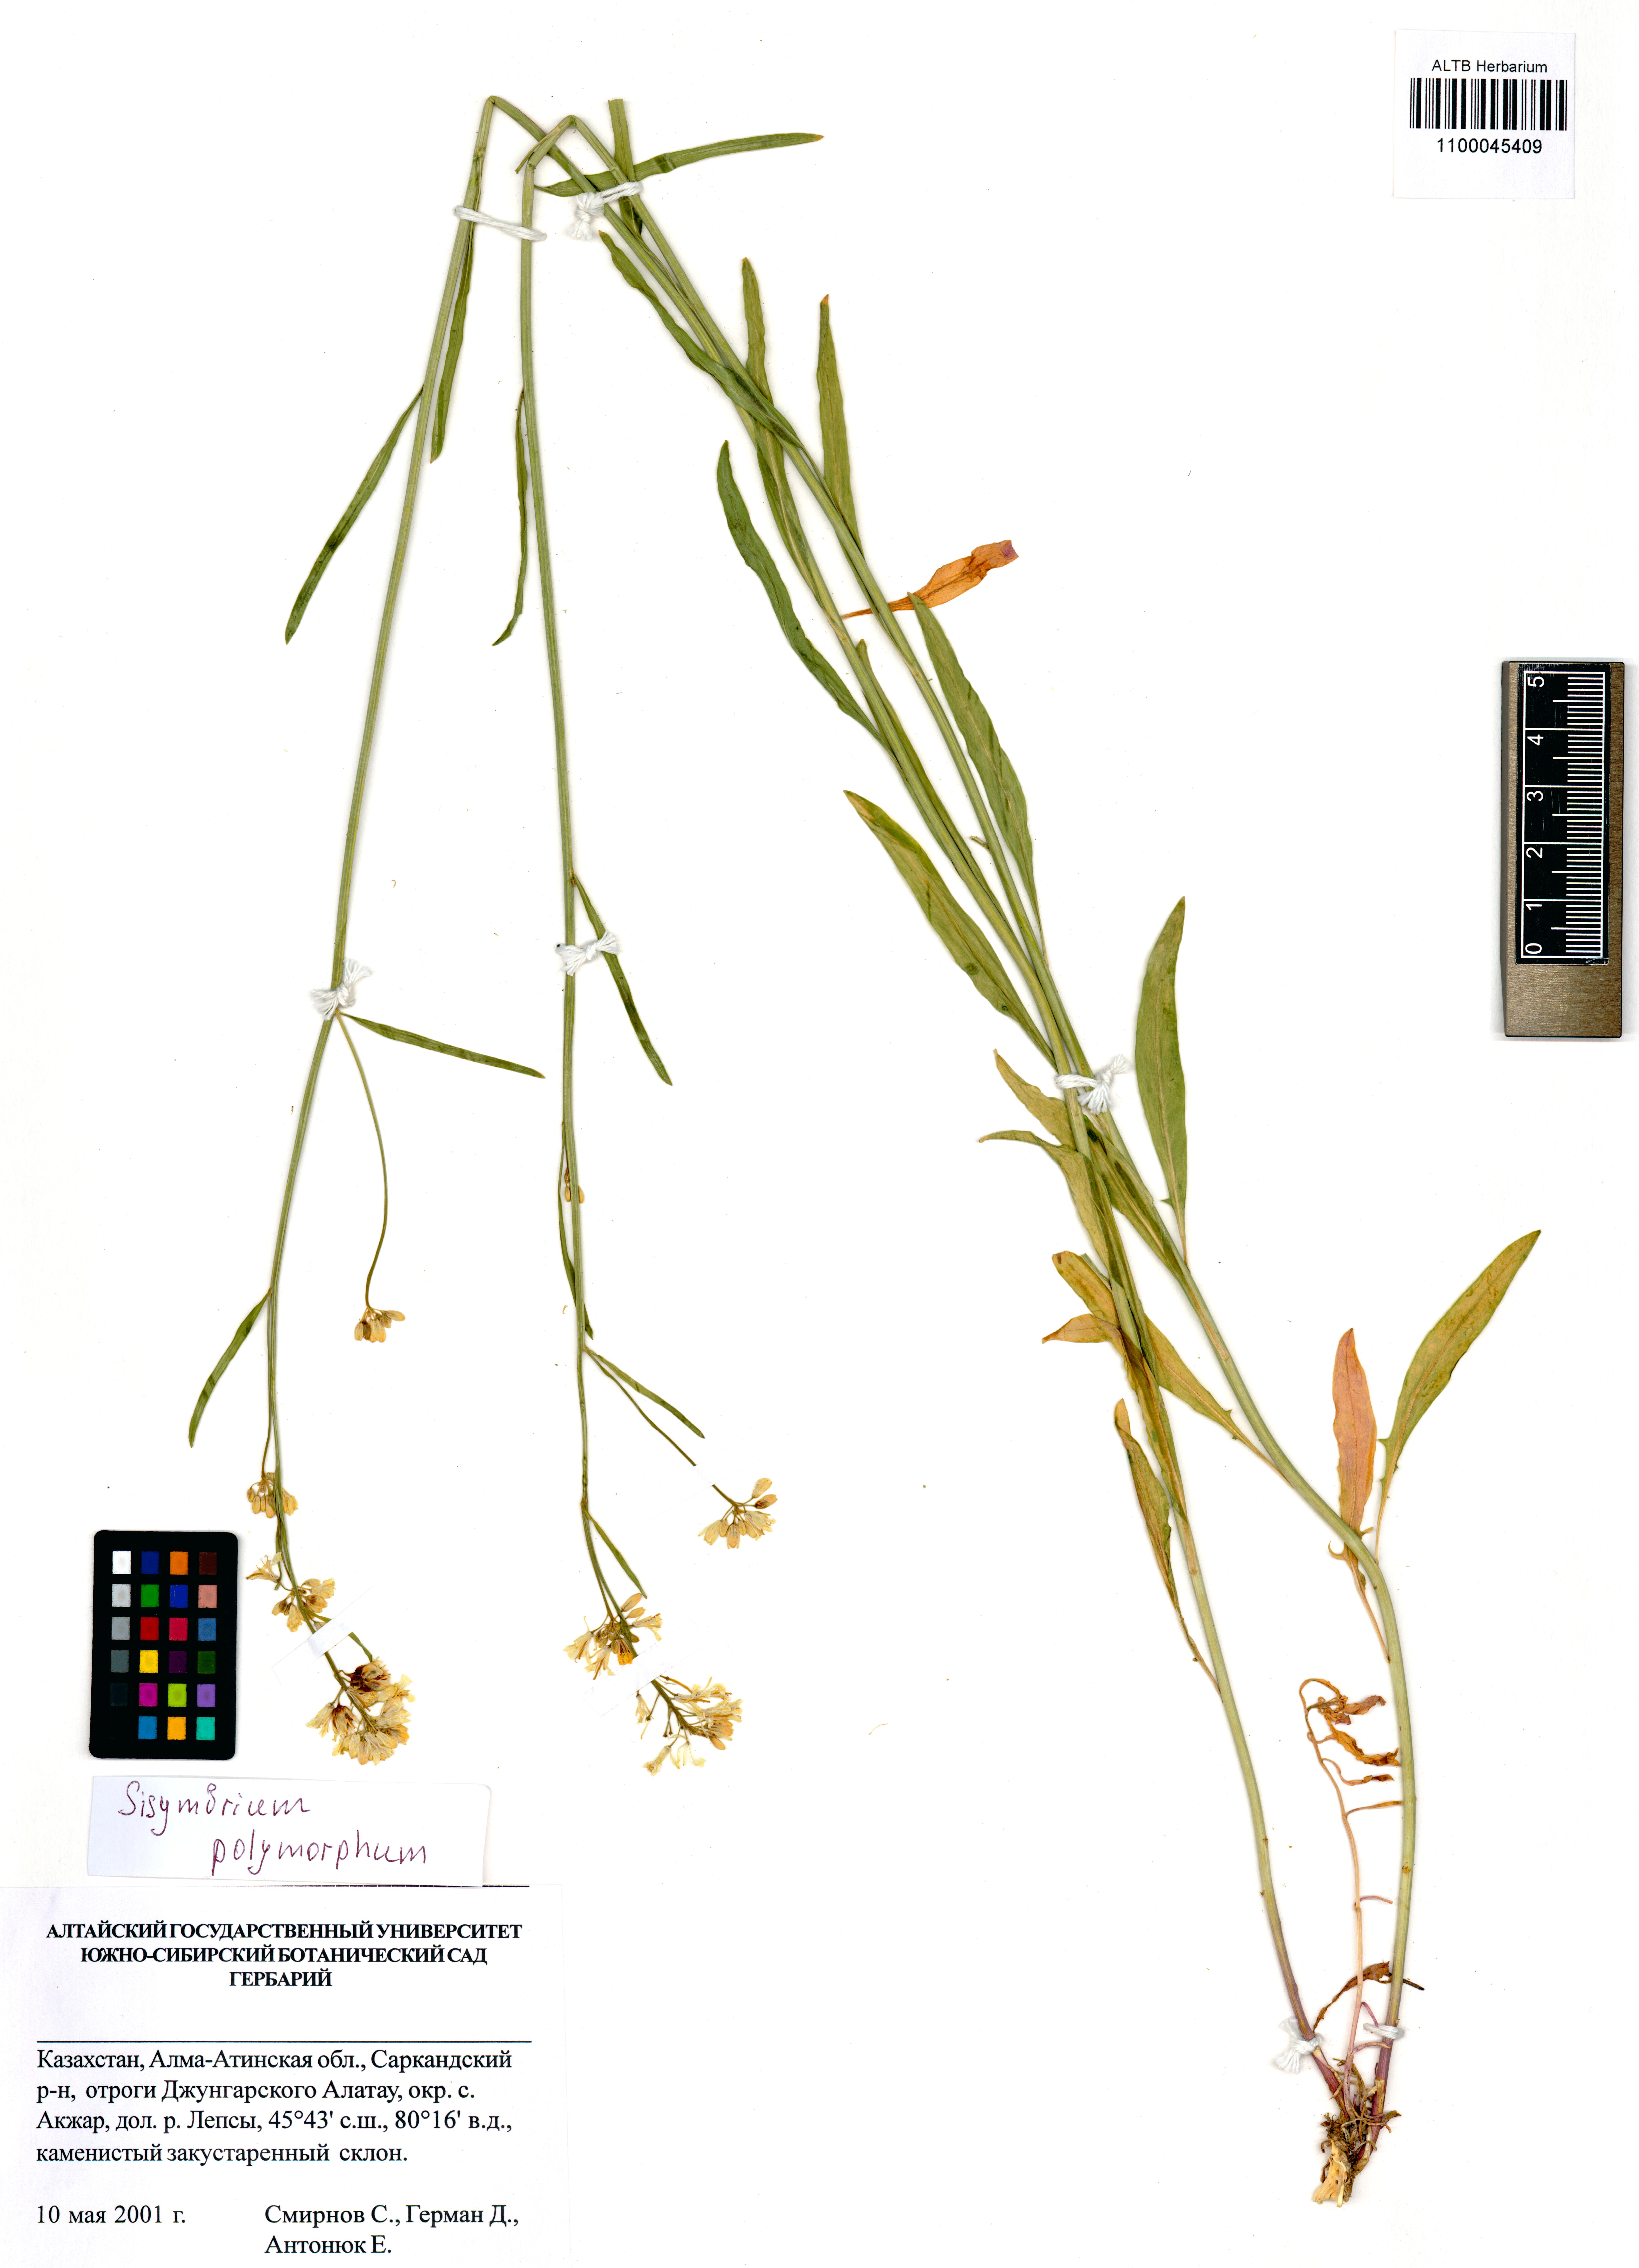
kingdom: Plantae
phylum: Tracheophyta
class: Magnoliopsida
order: Brassicales
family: Brassicaceae
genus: Sisymbrium
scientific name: Sisymbrium polymorphum
